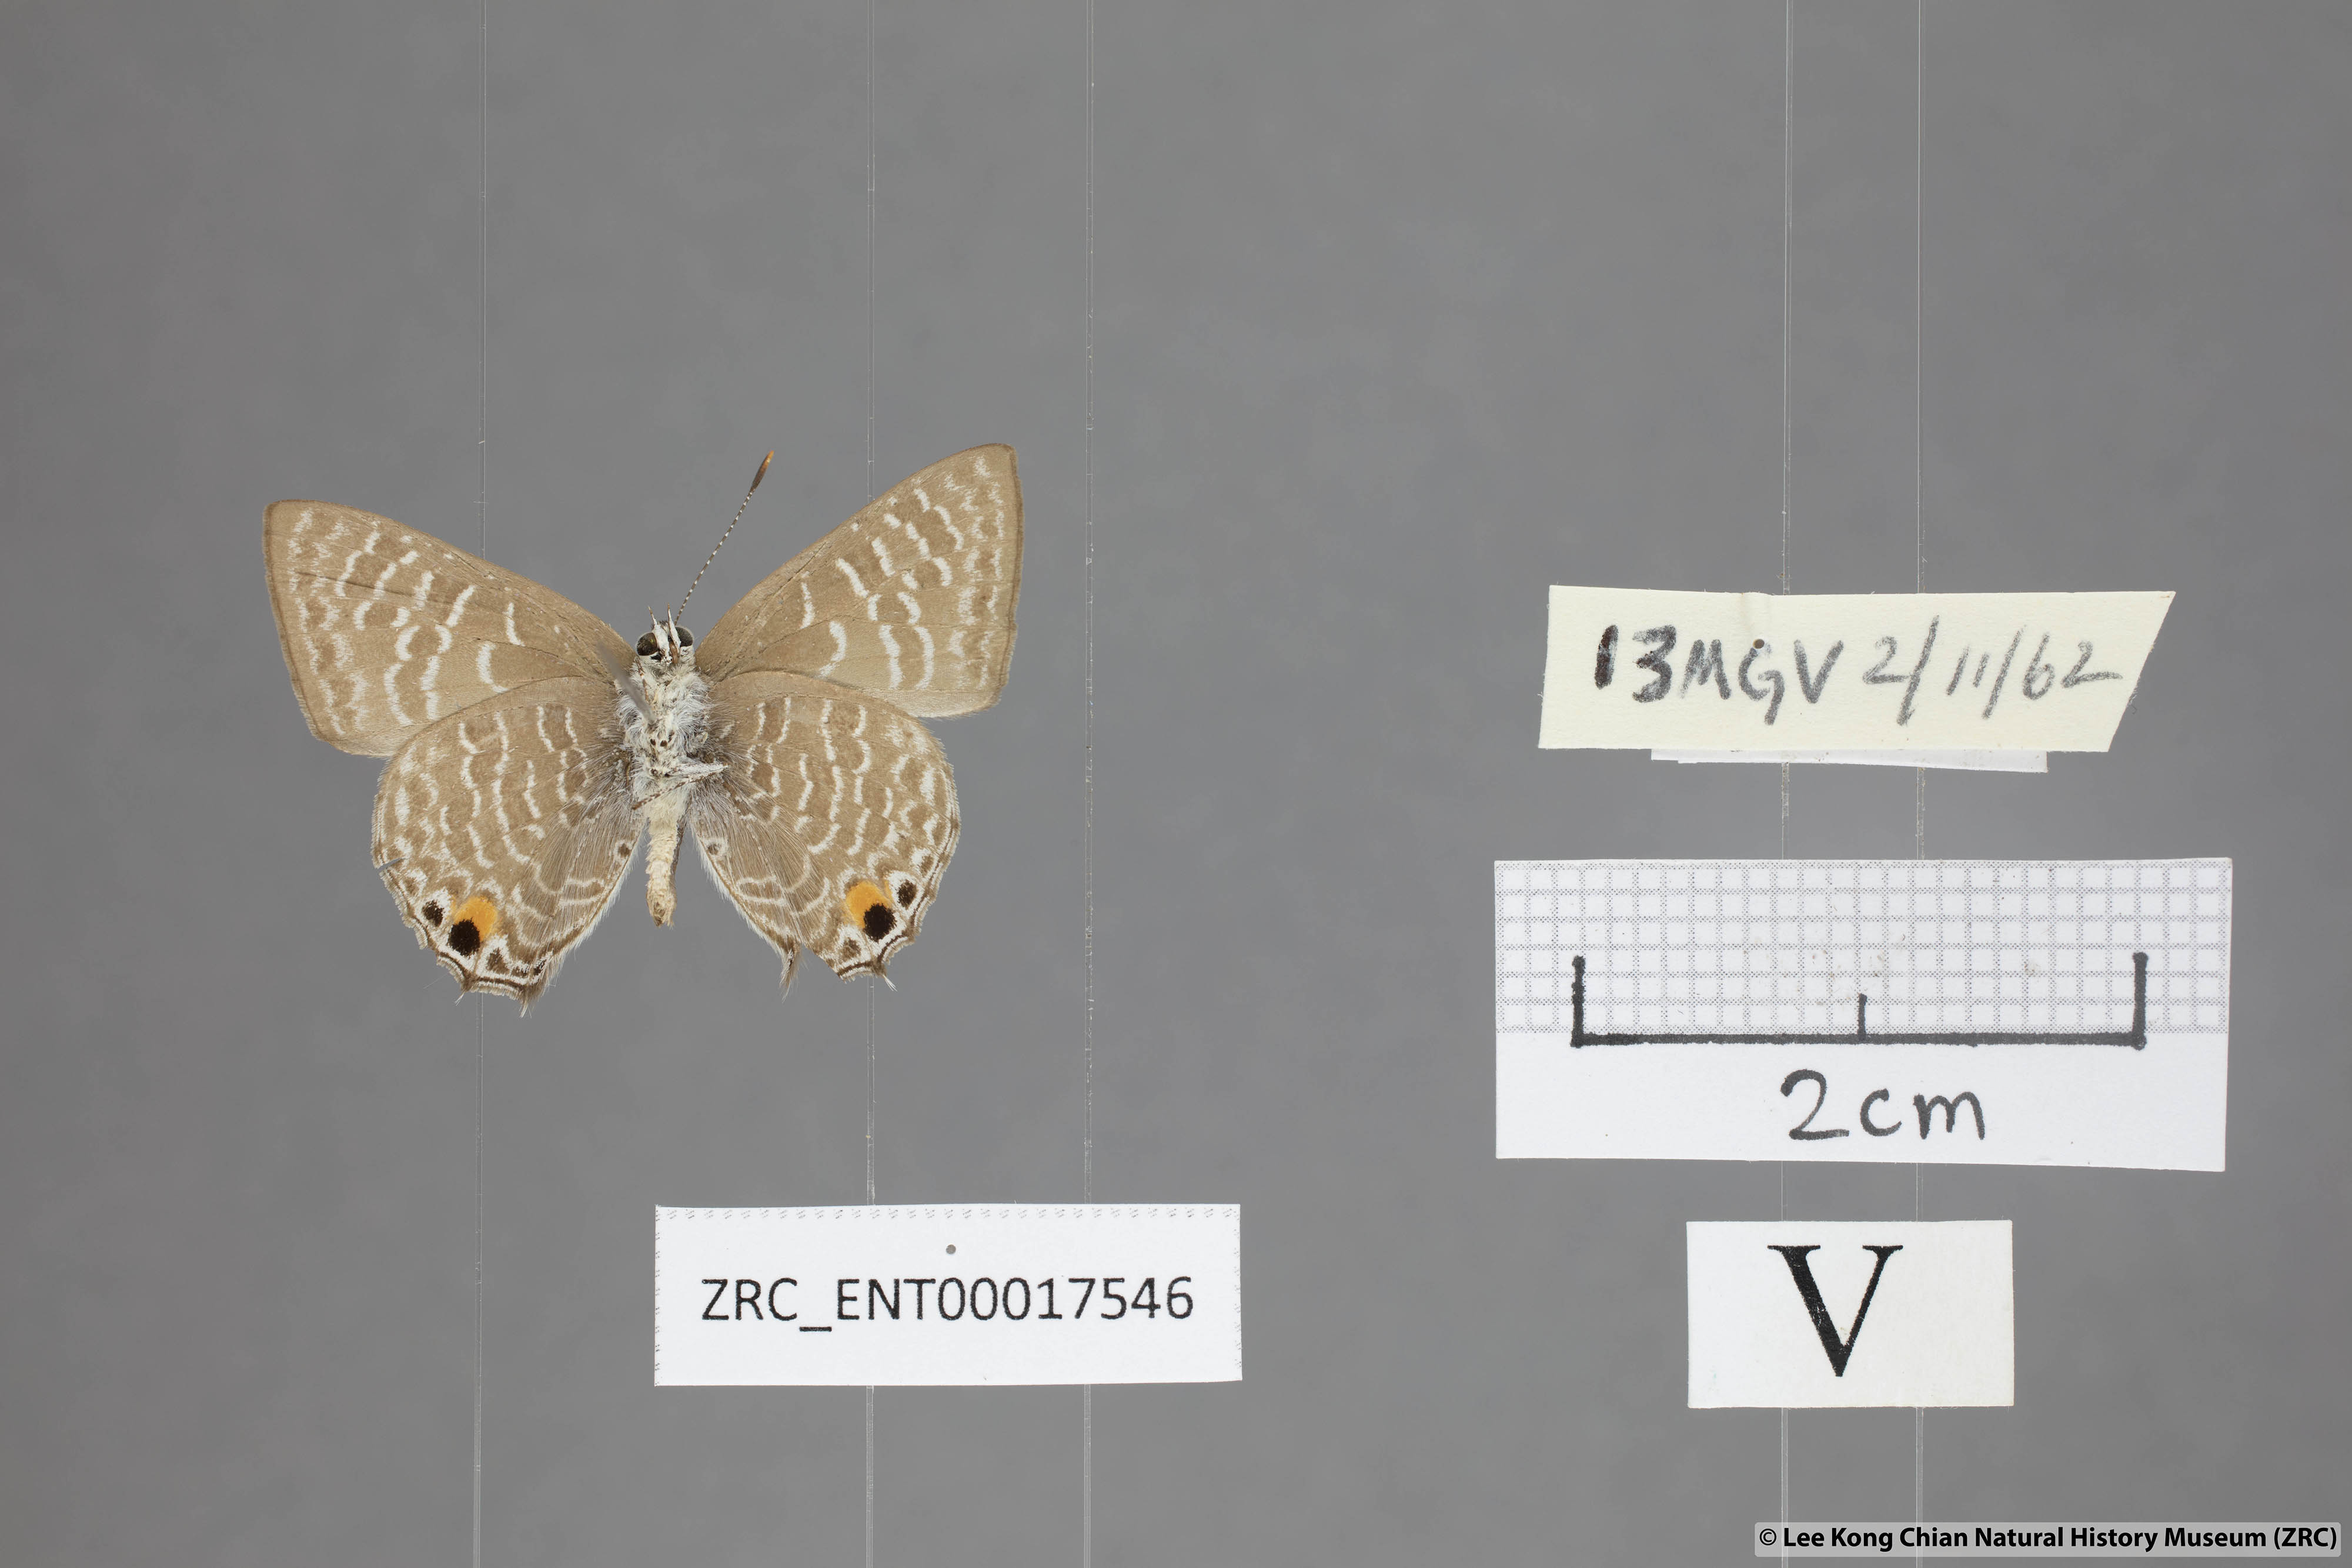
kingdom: Animalia
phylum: Arthropoda
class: Insecta
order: Lepidoptera
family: Lycaenidae
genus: Anthene
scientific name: Anthene licates
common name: White ciliate blue
